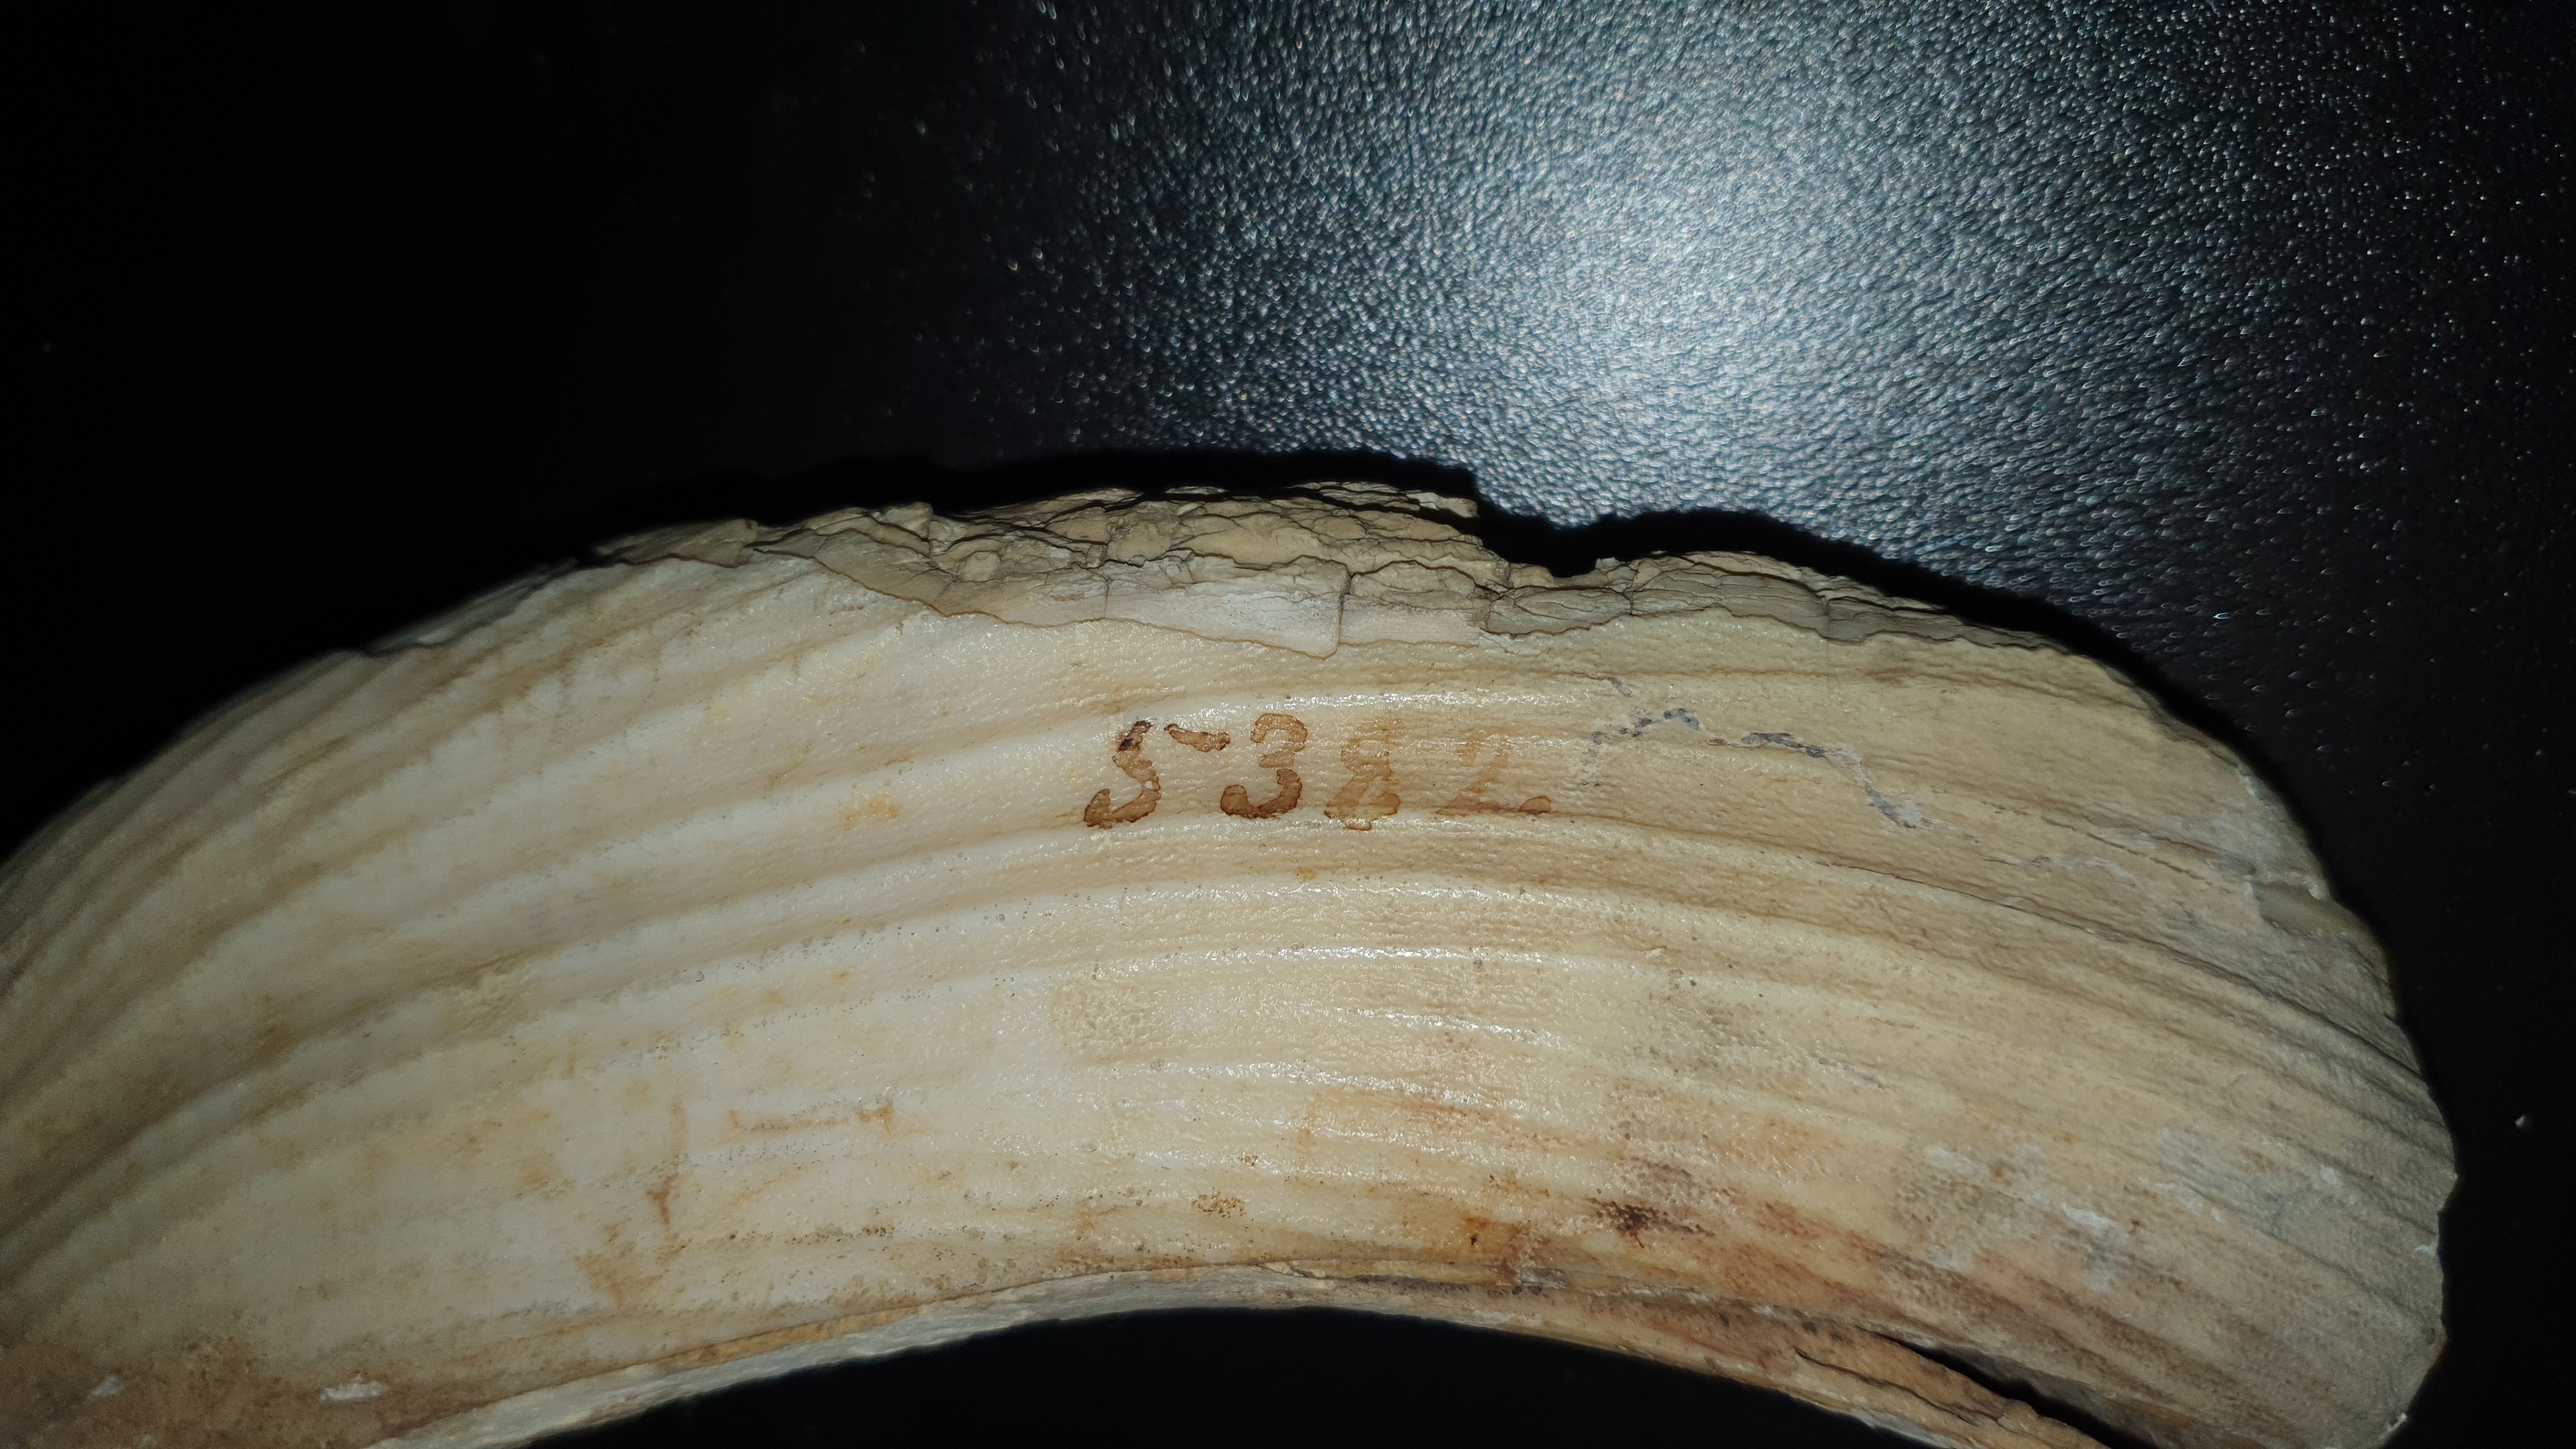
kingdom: Animalia
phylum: Chordata
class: Mammalia
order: Artiodactyla
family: Hippopotamidae
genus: Hippopotamus
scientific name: Hippopotamus amphibius
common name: Common hippopotamus
